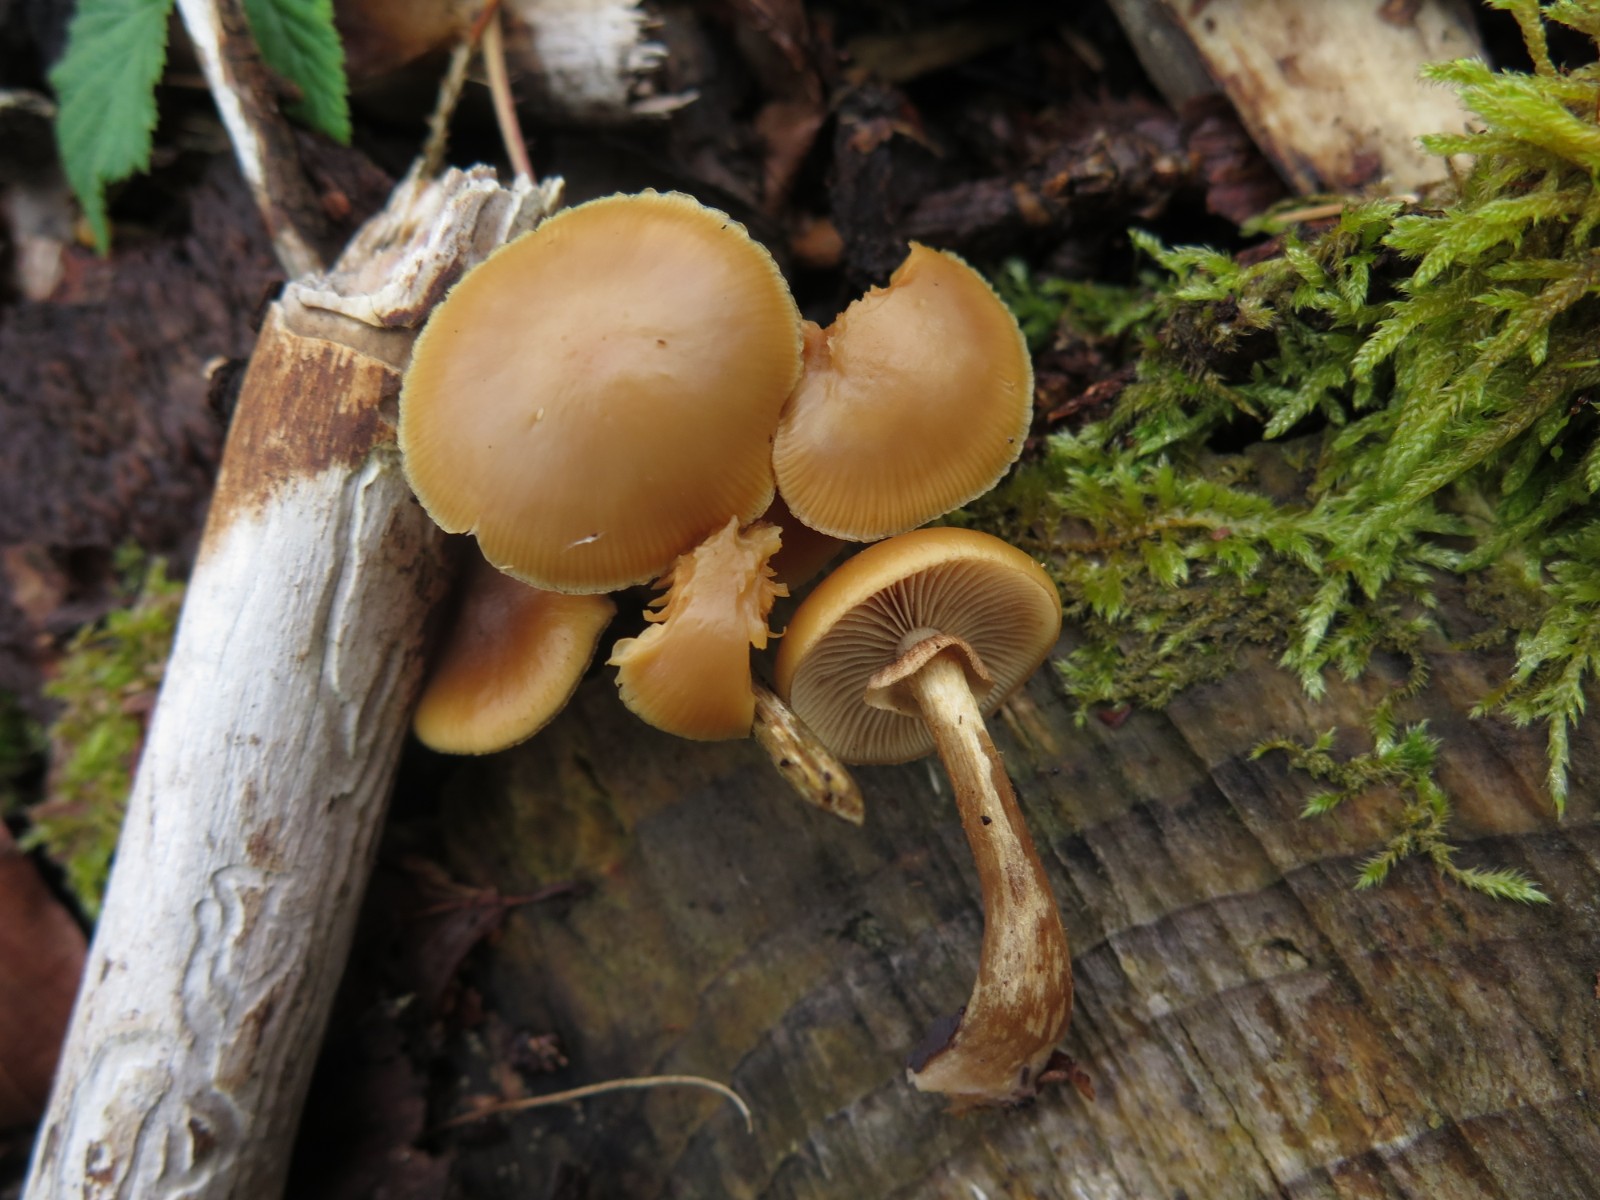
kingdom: Fungi
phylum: Basidiomycota
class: Agaricomycetes
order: Agaricales
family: Strophariaceae
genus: Kuehneromyces
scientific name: Kuehneromyces mutabilis
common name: foranderlig skælhat
